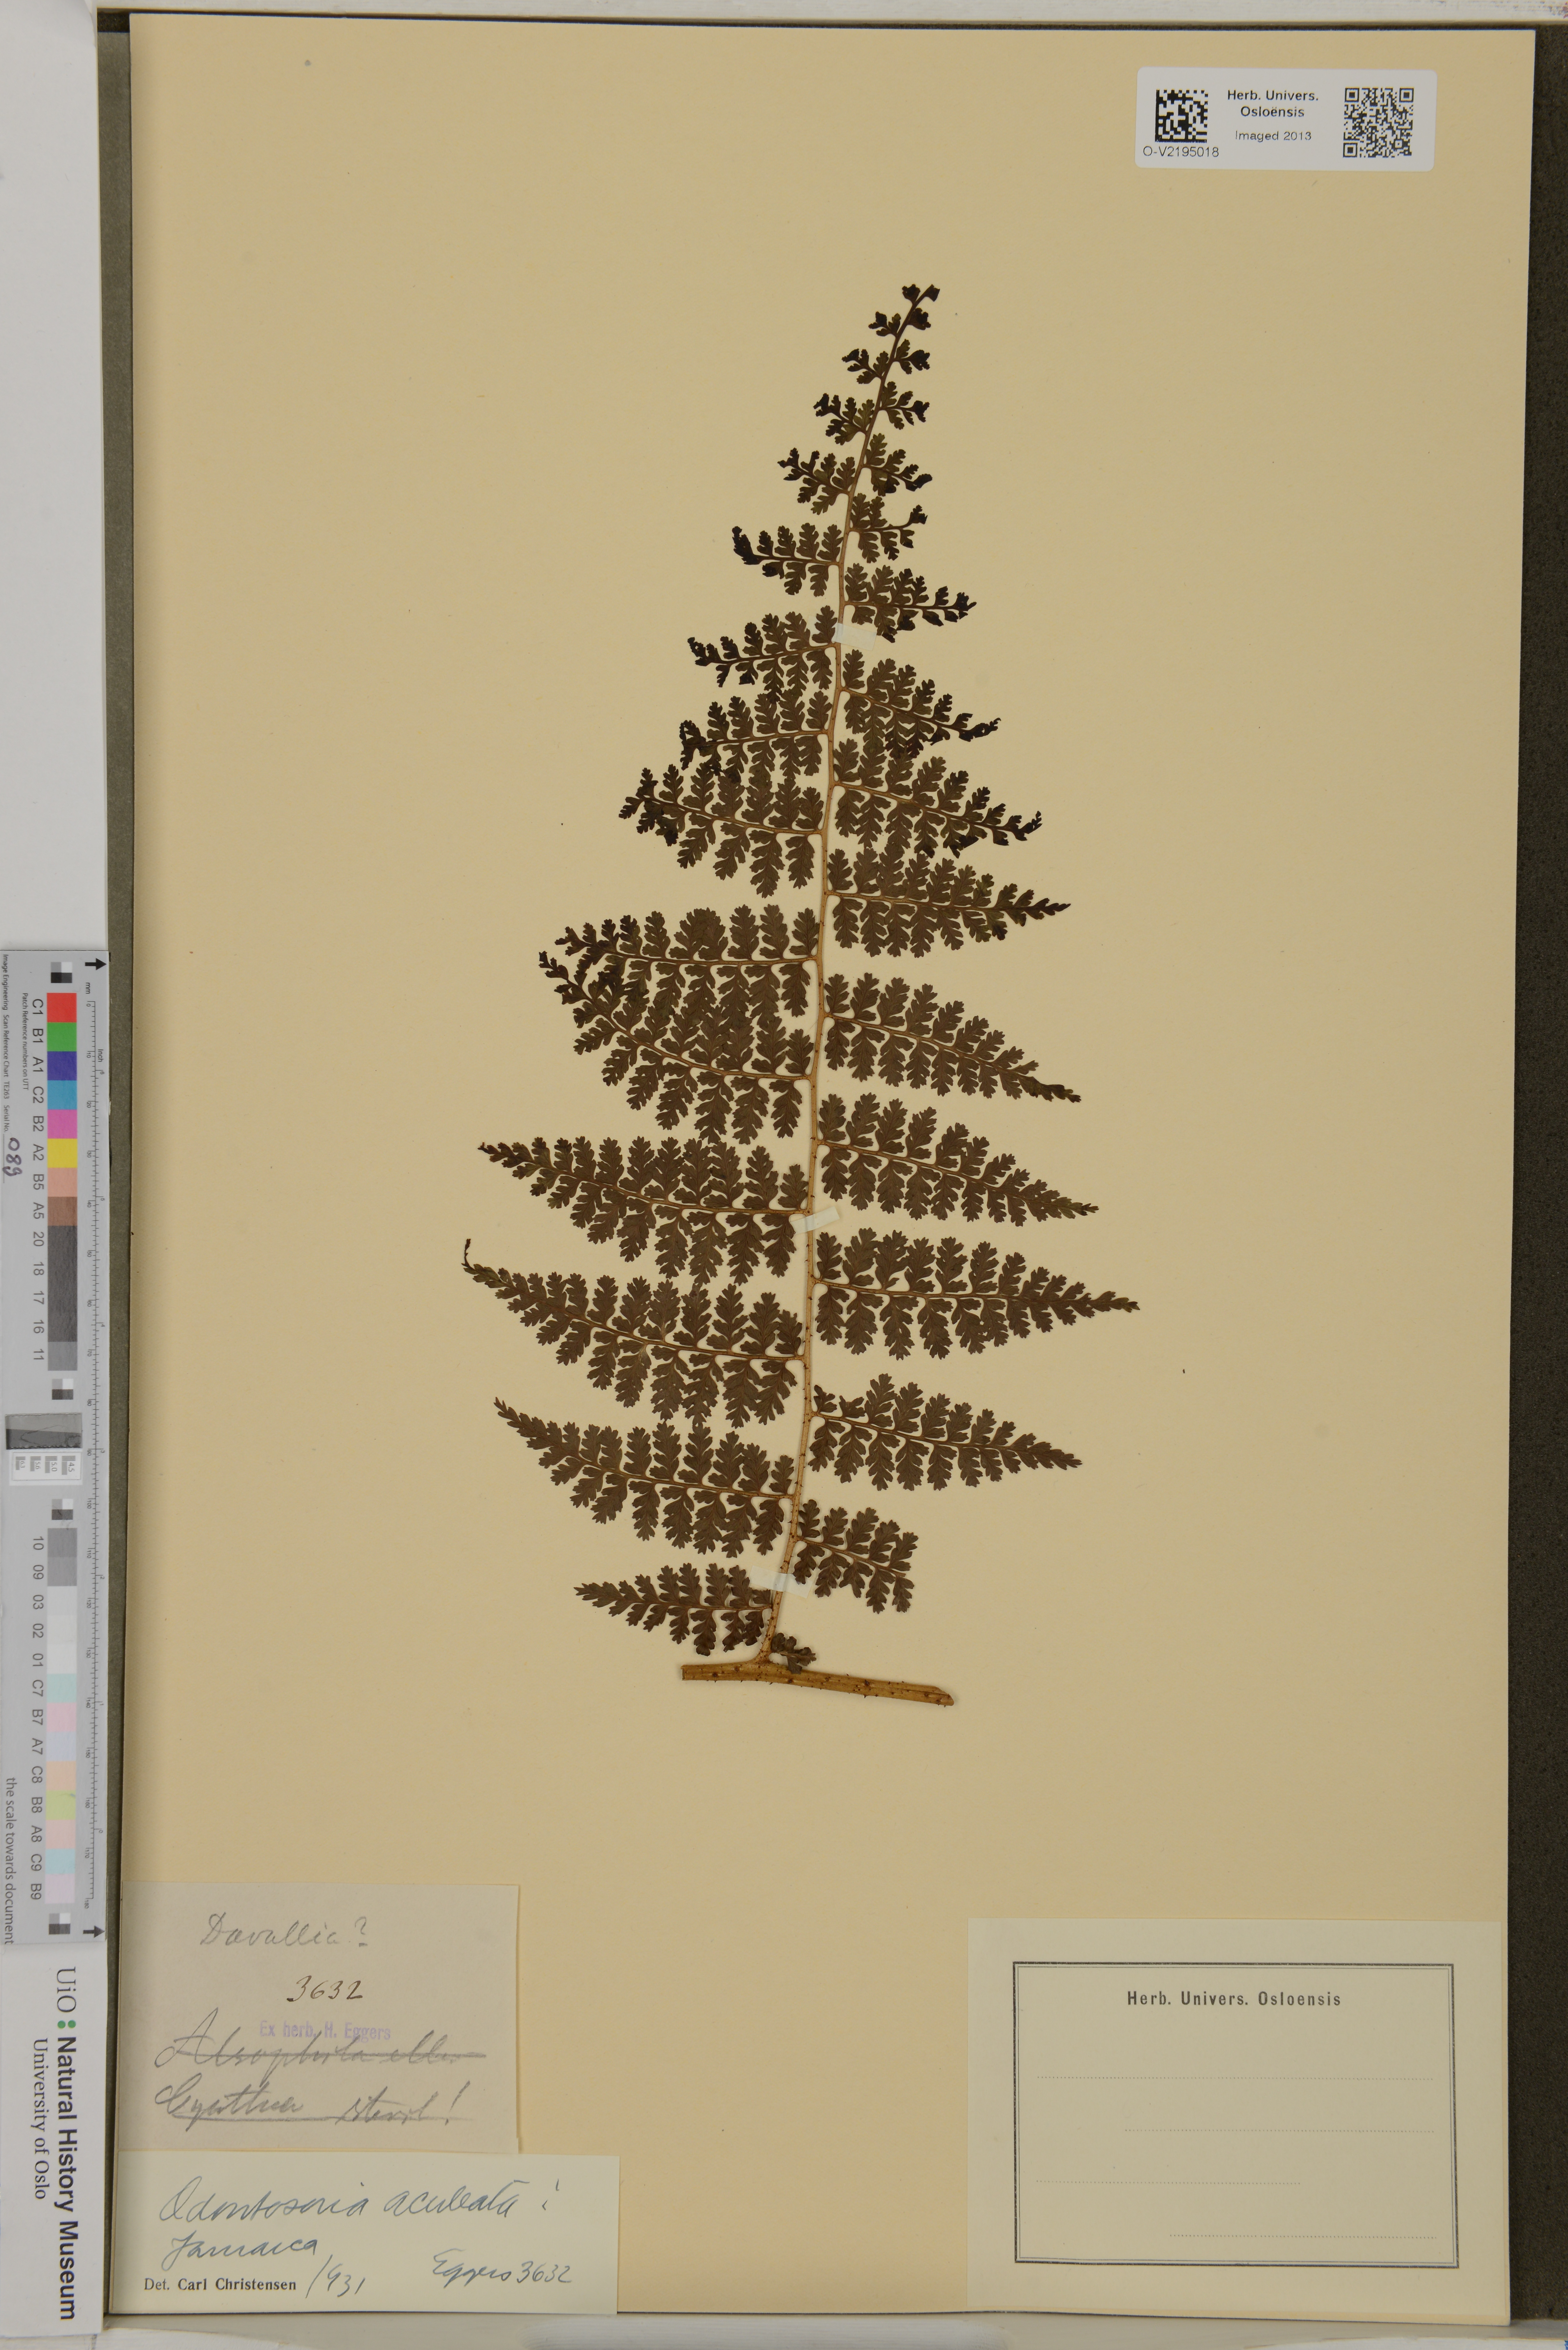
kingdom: Plantae
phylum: Tracheophyta
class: Polypodiopsida
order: Polypodiales
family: Lindsaeaceae
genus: Odontosoria
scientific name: Odontosoria aculeata
